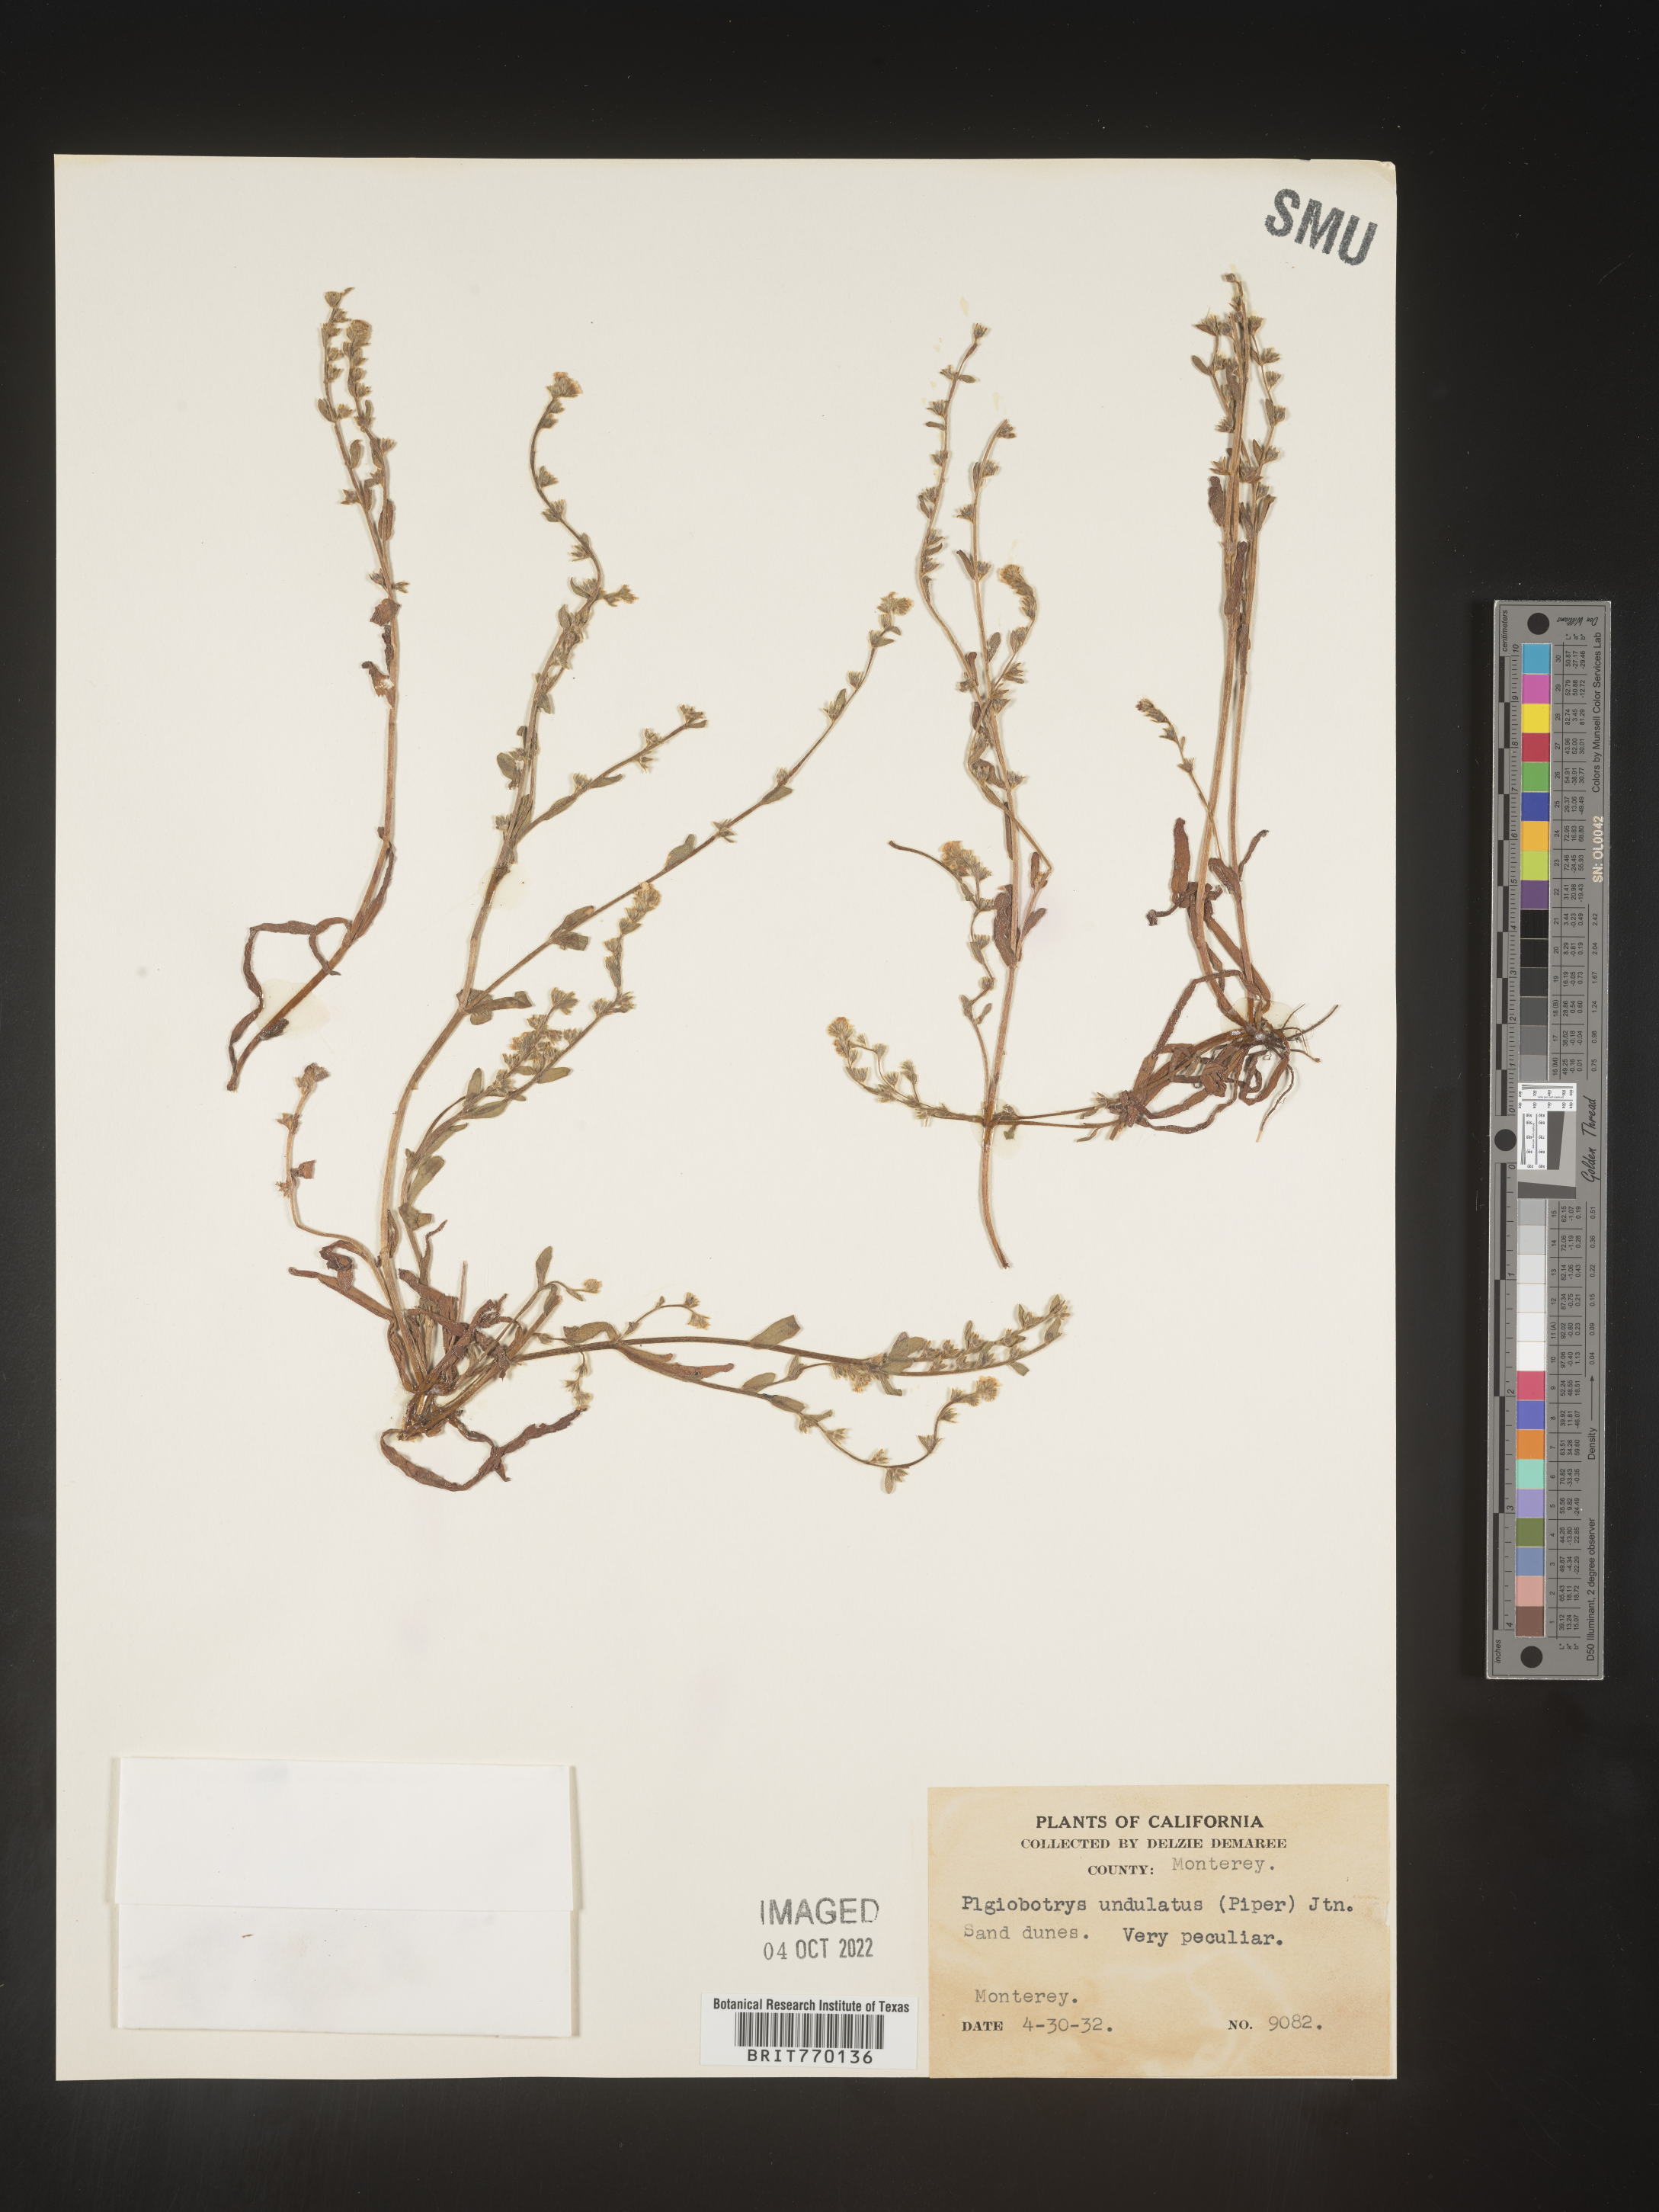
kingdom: Plantae
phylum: Tracheophyta
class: Magnoliopsida
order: Boraginales
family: Boraginaceae
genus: Plagiobothrys
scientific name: Plagiobothrys
